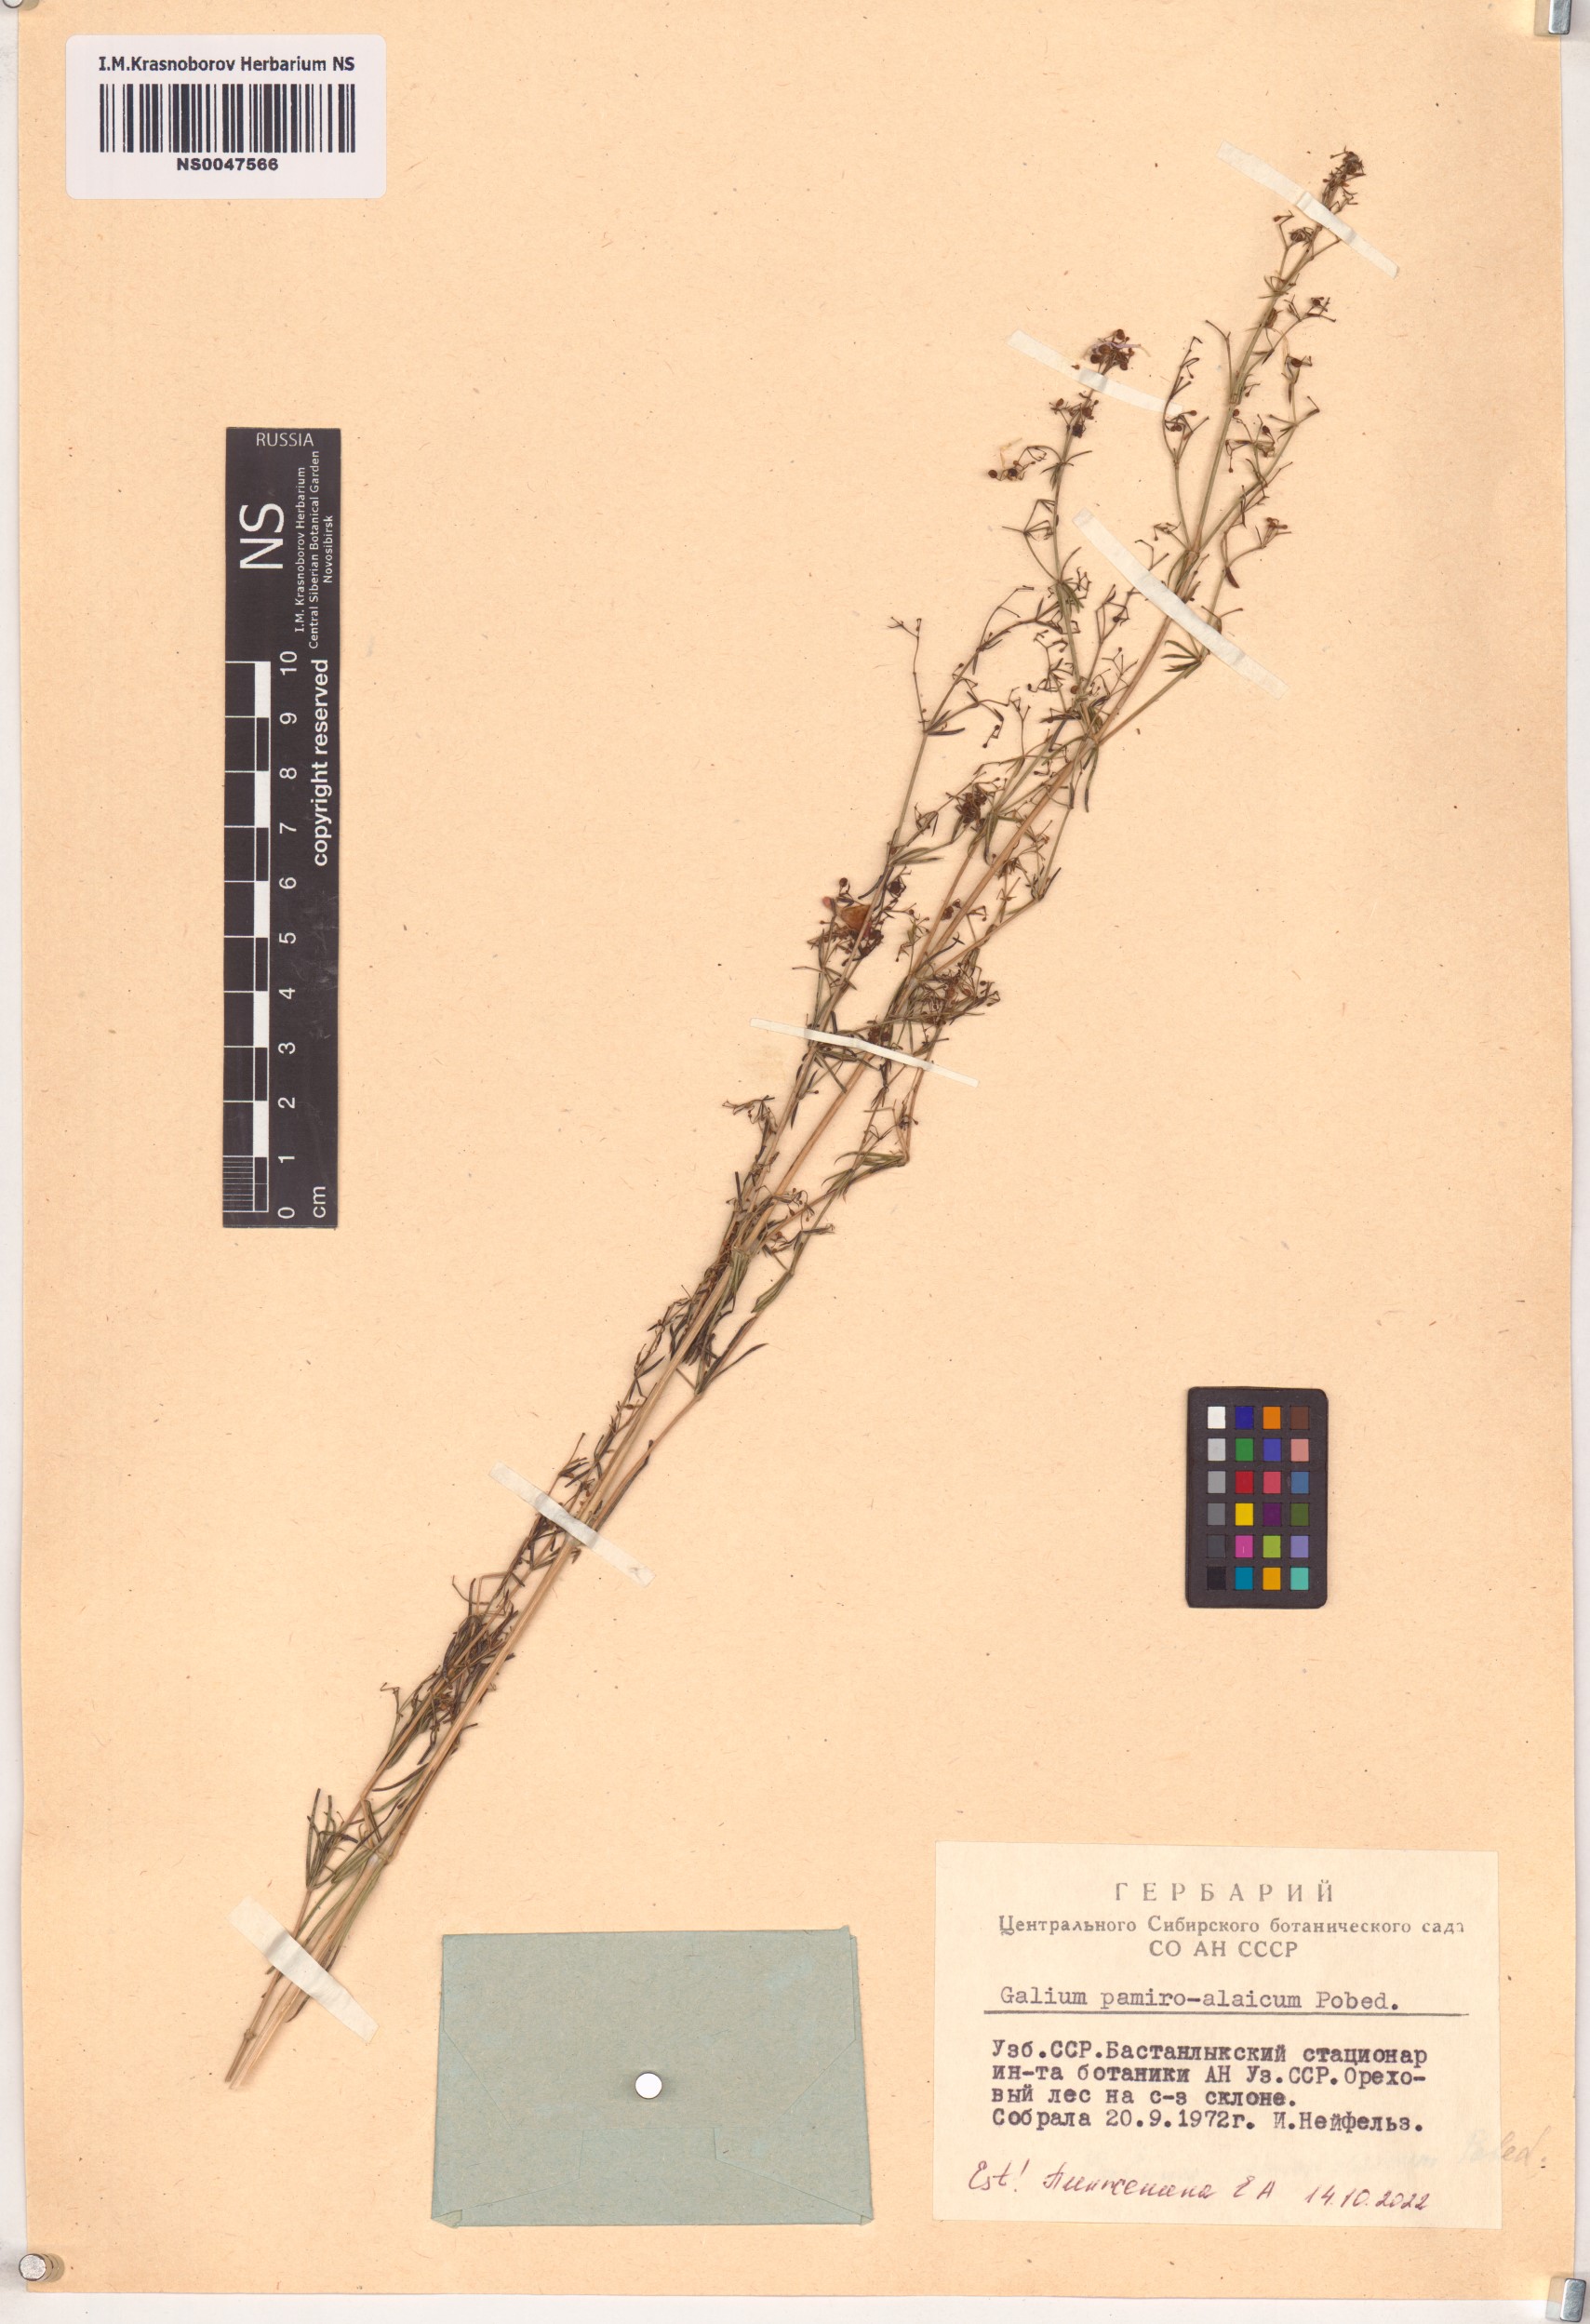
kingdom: Plantae
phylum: Tracheophyta
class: Magnoliopsida
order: Gentianales
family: Rubiaceae
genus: Galium
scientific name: Galium pamiroalaicum
